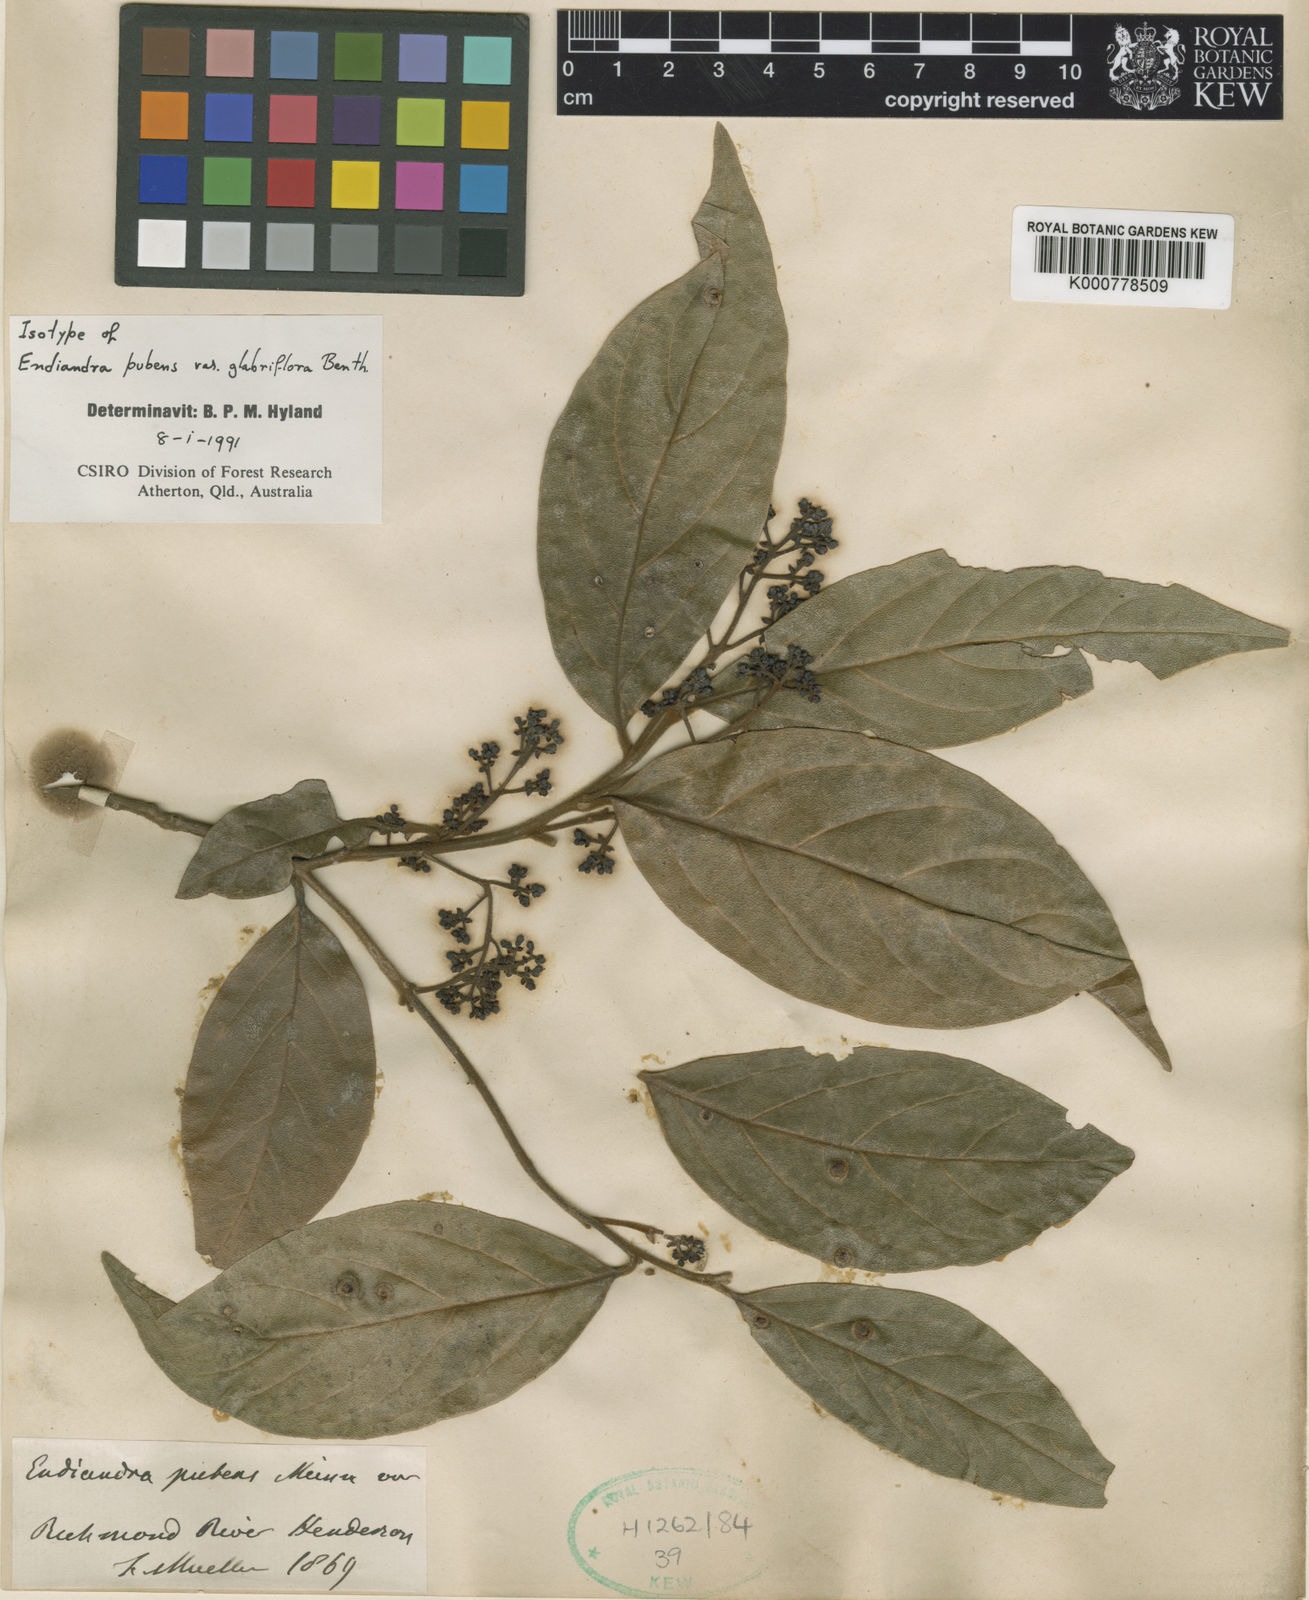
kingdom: Plantae
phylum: Tracheophyta
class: Magnoliopsida
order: Laurales
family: Lauraceae
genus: Endiandra
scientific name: Endiandra muelleri
